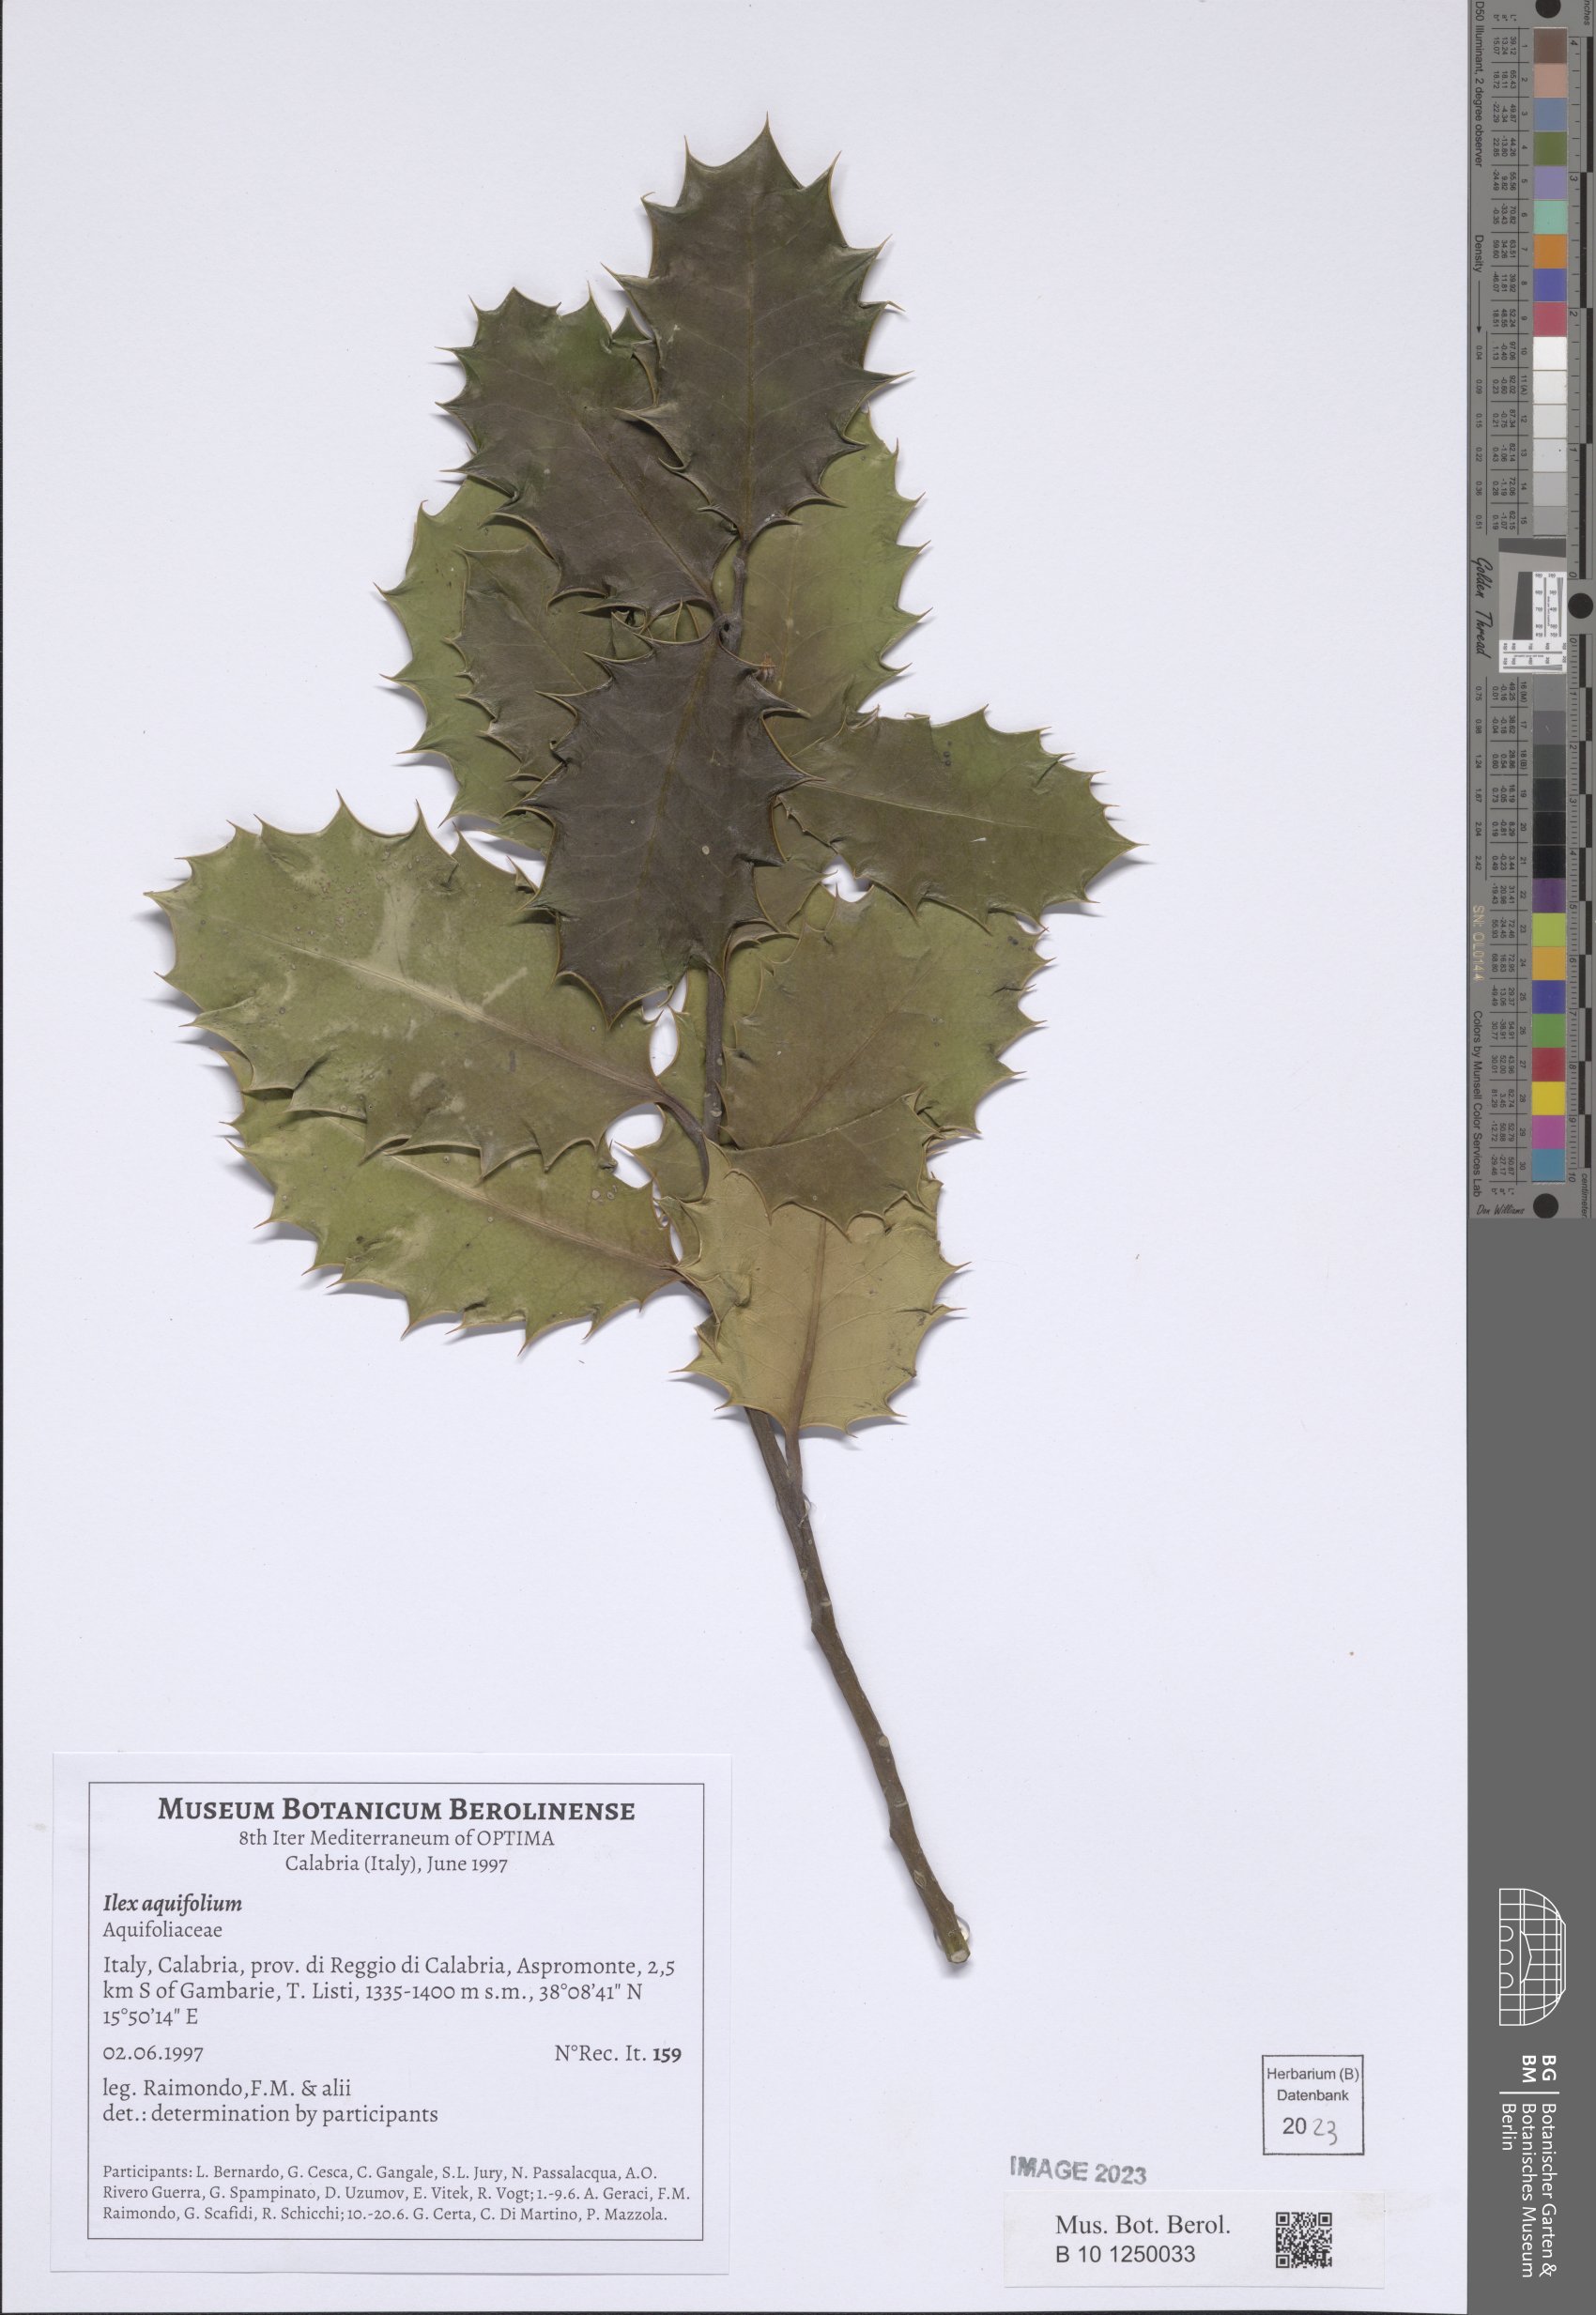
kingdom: Plantae
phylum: Tracheophyta
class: Magnoliopsida
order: Aquifoliales
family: Aquifoliaceae
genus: Ilex
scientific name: Ilex aquifolium
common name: English holly
